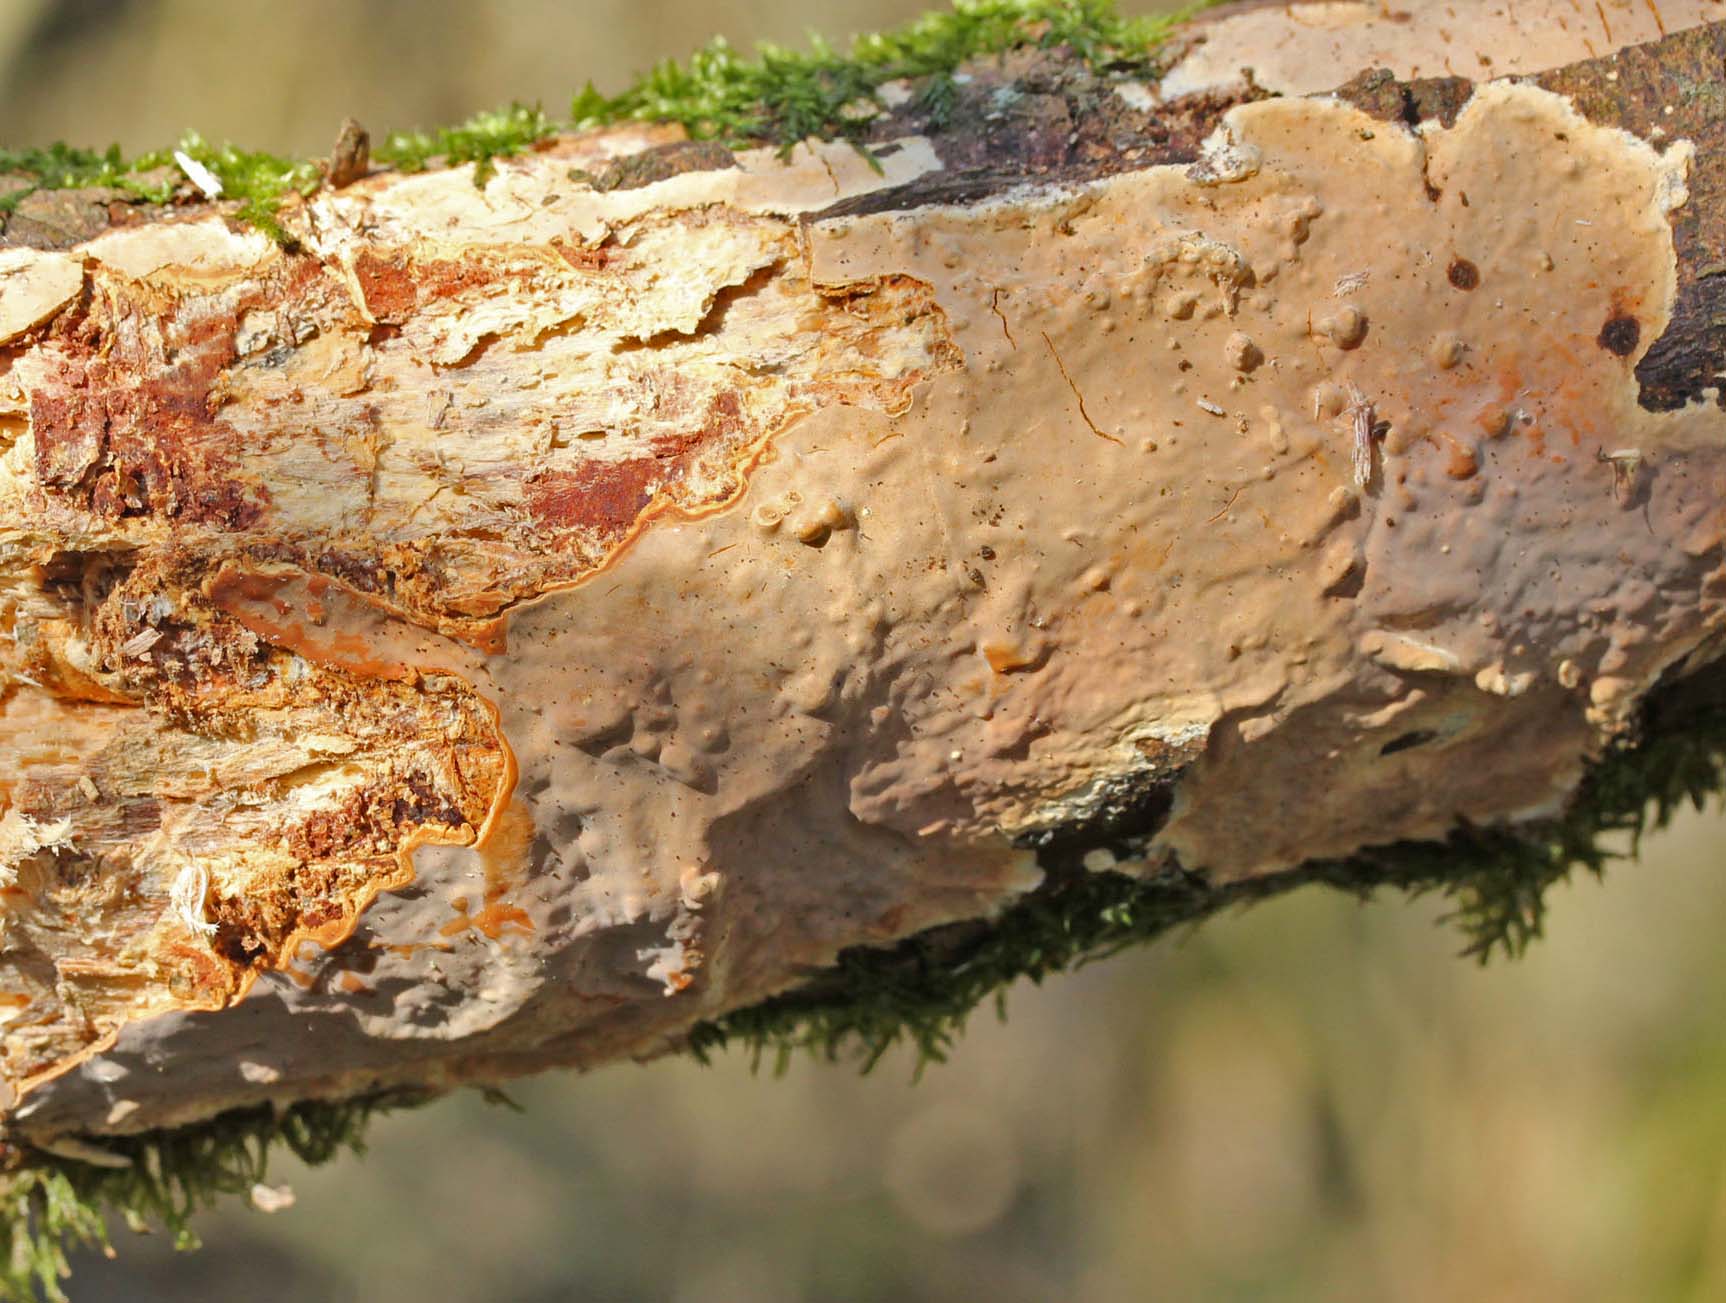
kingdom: Fungi
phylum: Basidiomycota
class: Agaricomycetes
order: Russulales
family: Peniophoraceae
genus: Scytinostroma
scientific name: Scytinostroma hemidichophyticum
